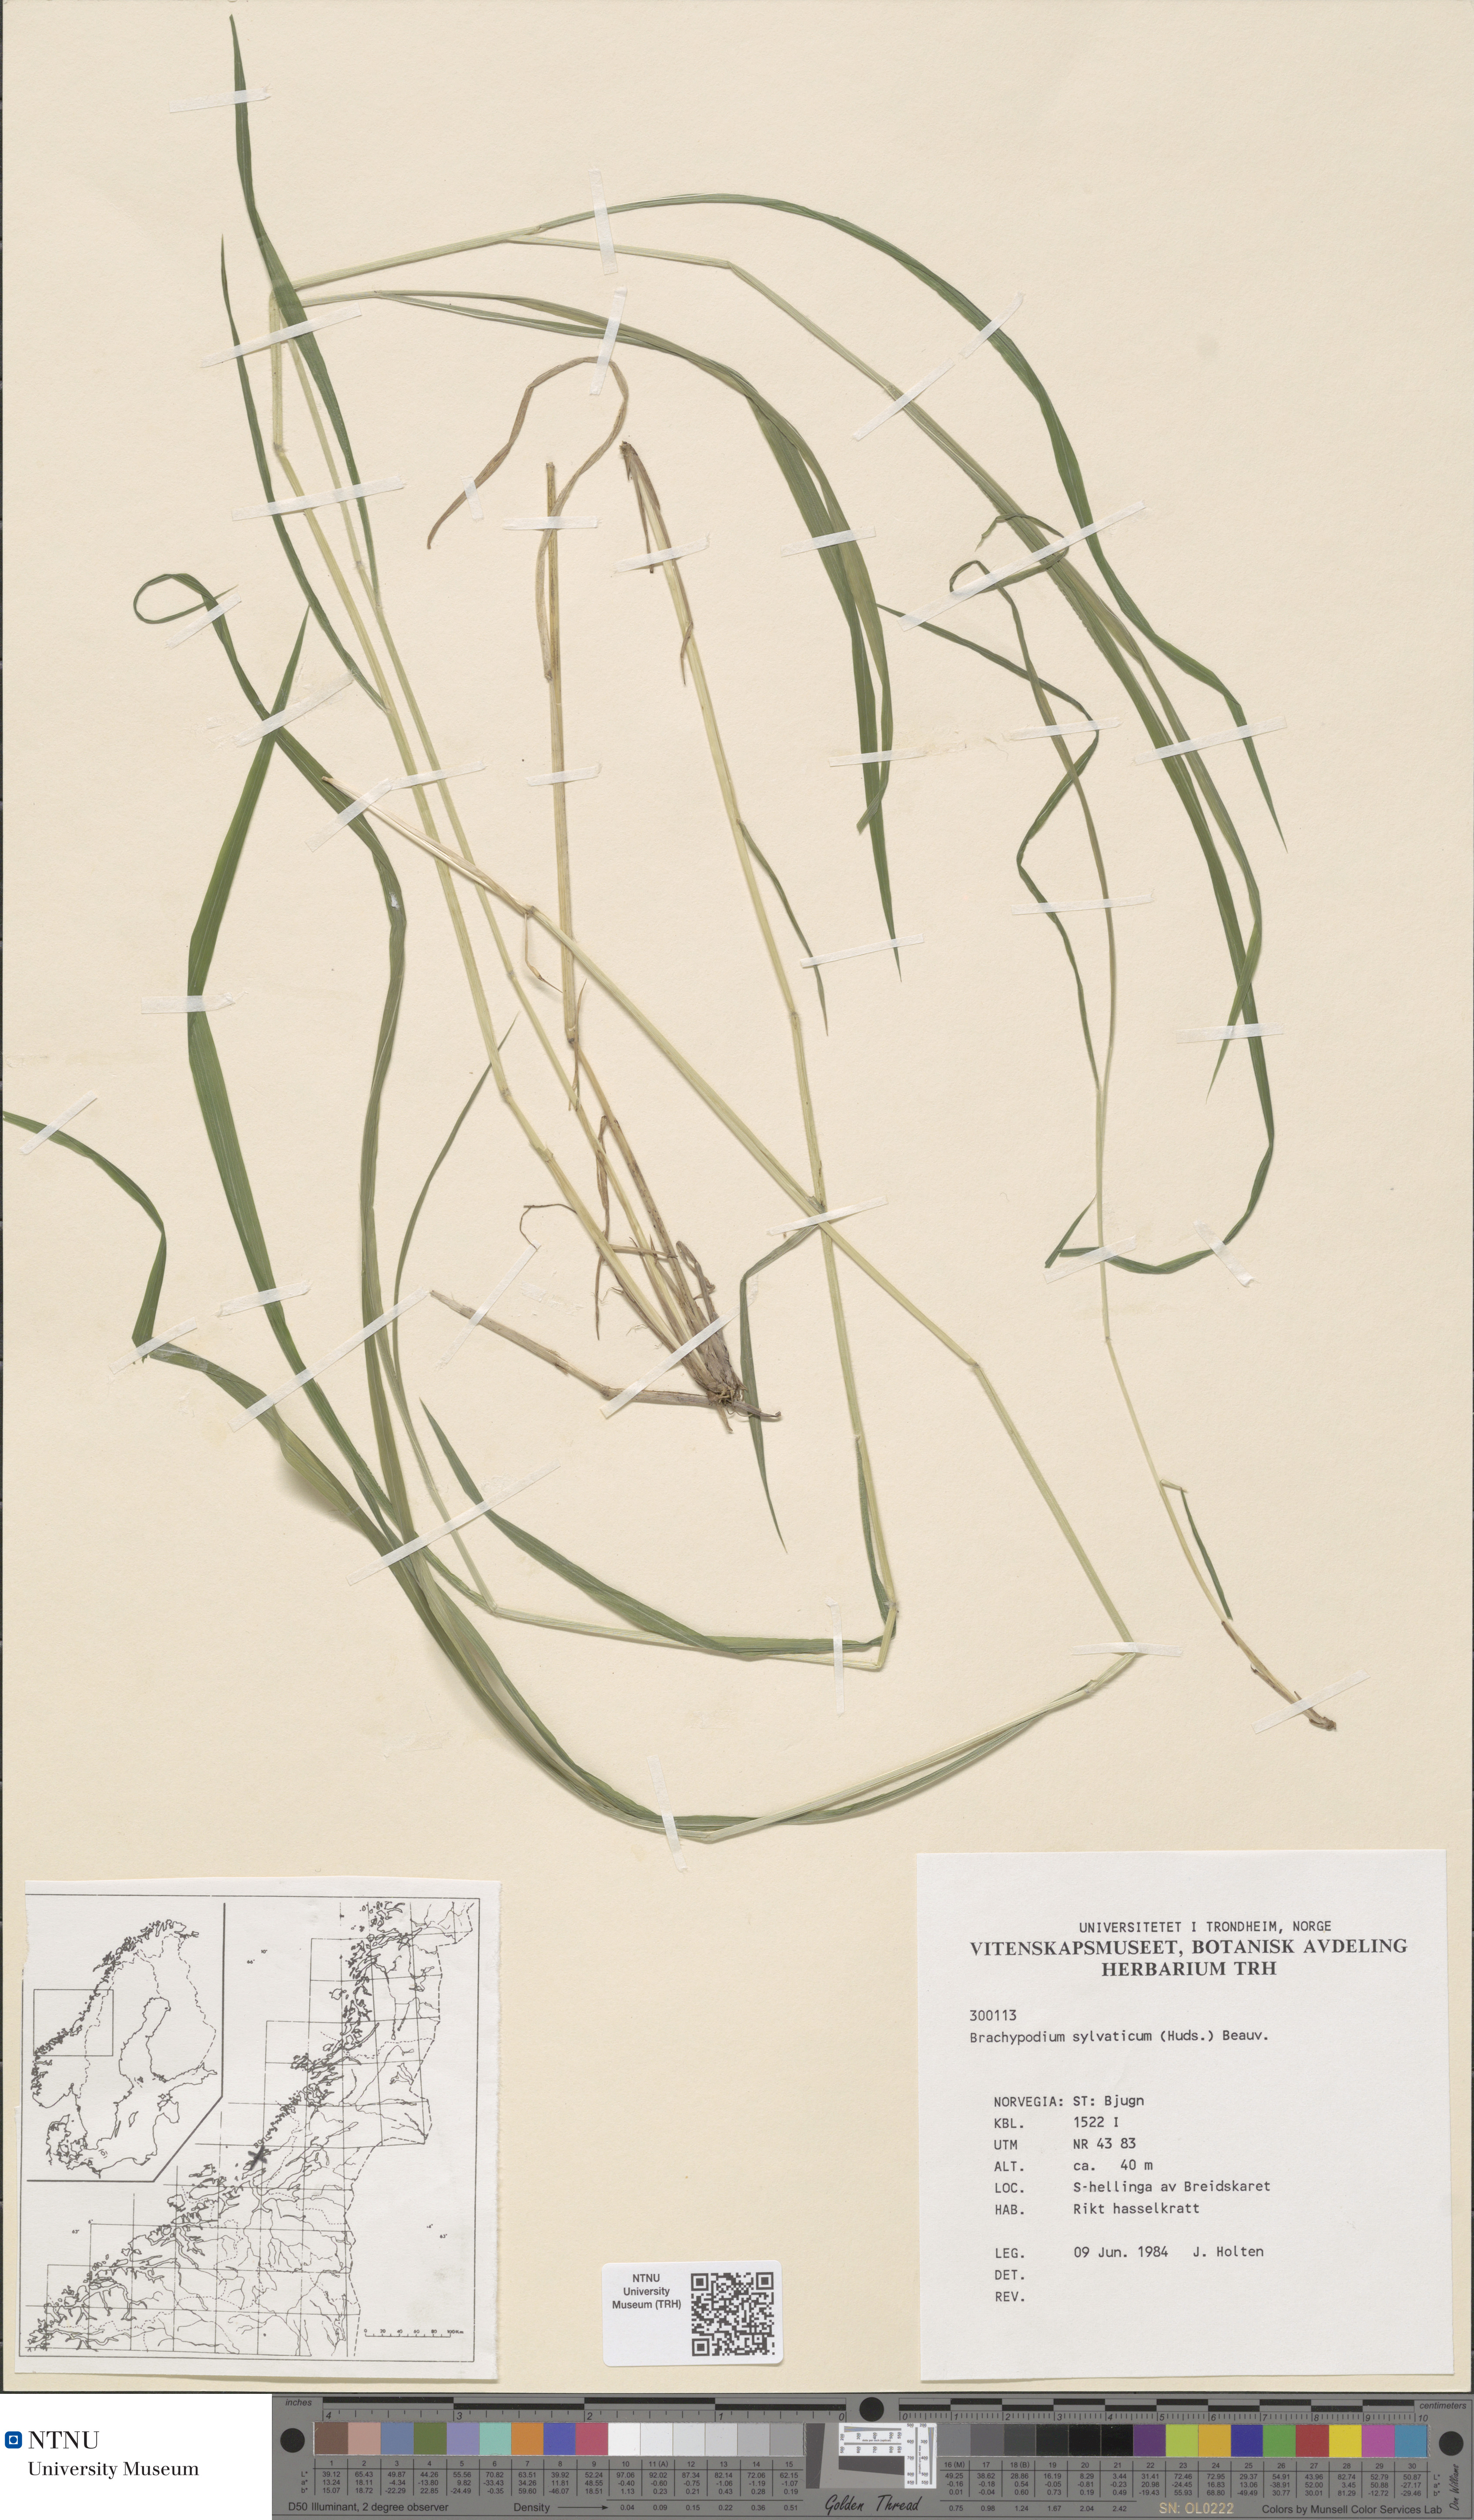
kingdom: Plantae
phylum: Tracheophyta
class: Liliopsida
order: Poales
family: Poaceae
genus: Brachypodium
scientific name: Brachypodium sylvaticum
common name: False-brome
